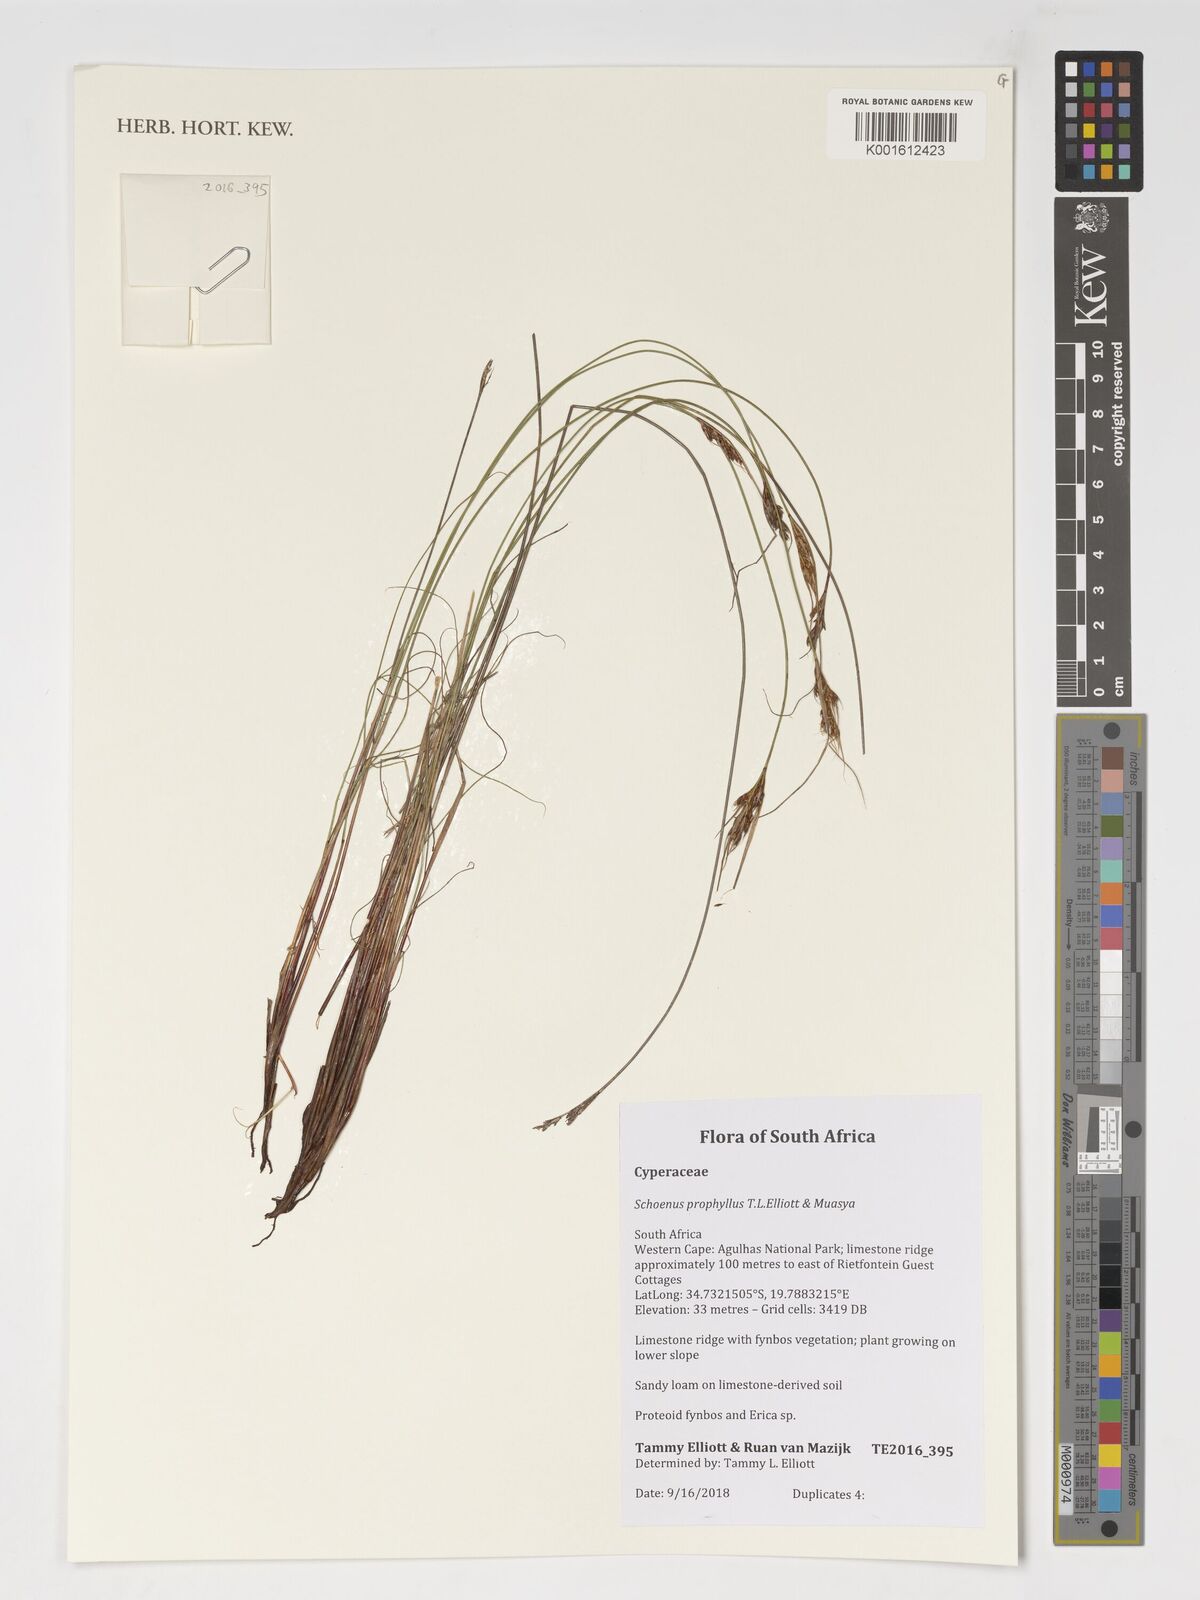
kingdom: Plantae
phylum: Tracheophyta
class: Liliopsida
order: Poales
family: Cyperaceae
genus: Schoenus
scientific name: Schoenus prophyllus
